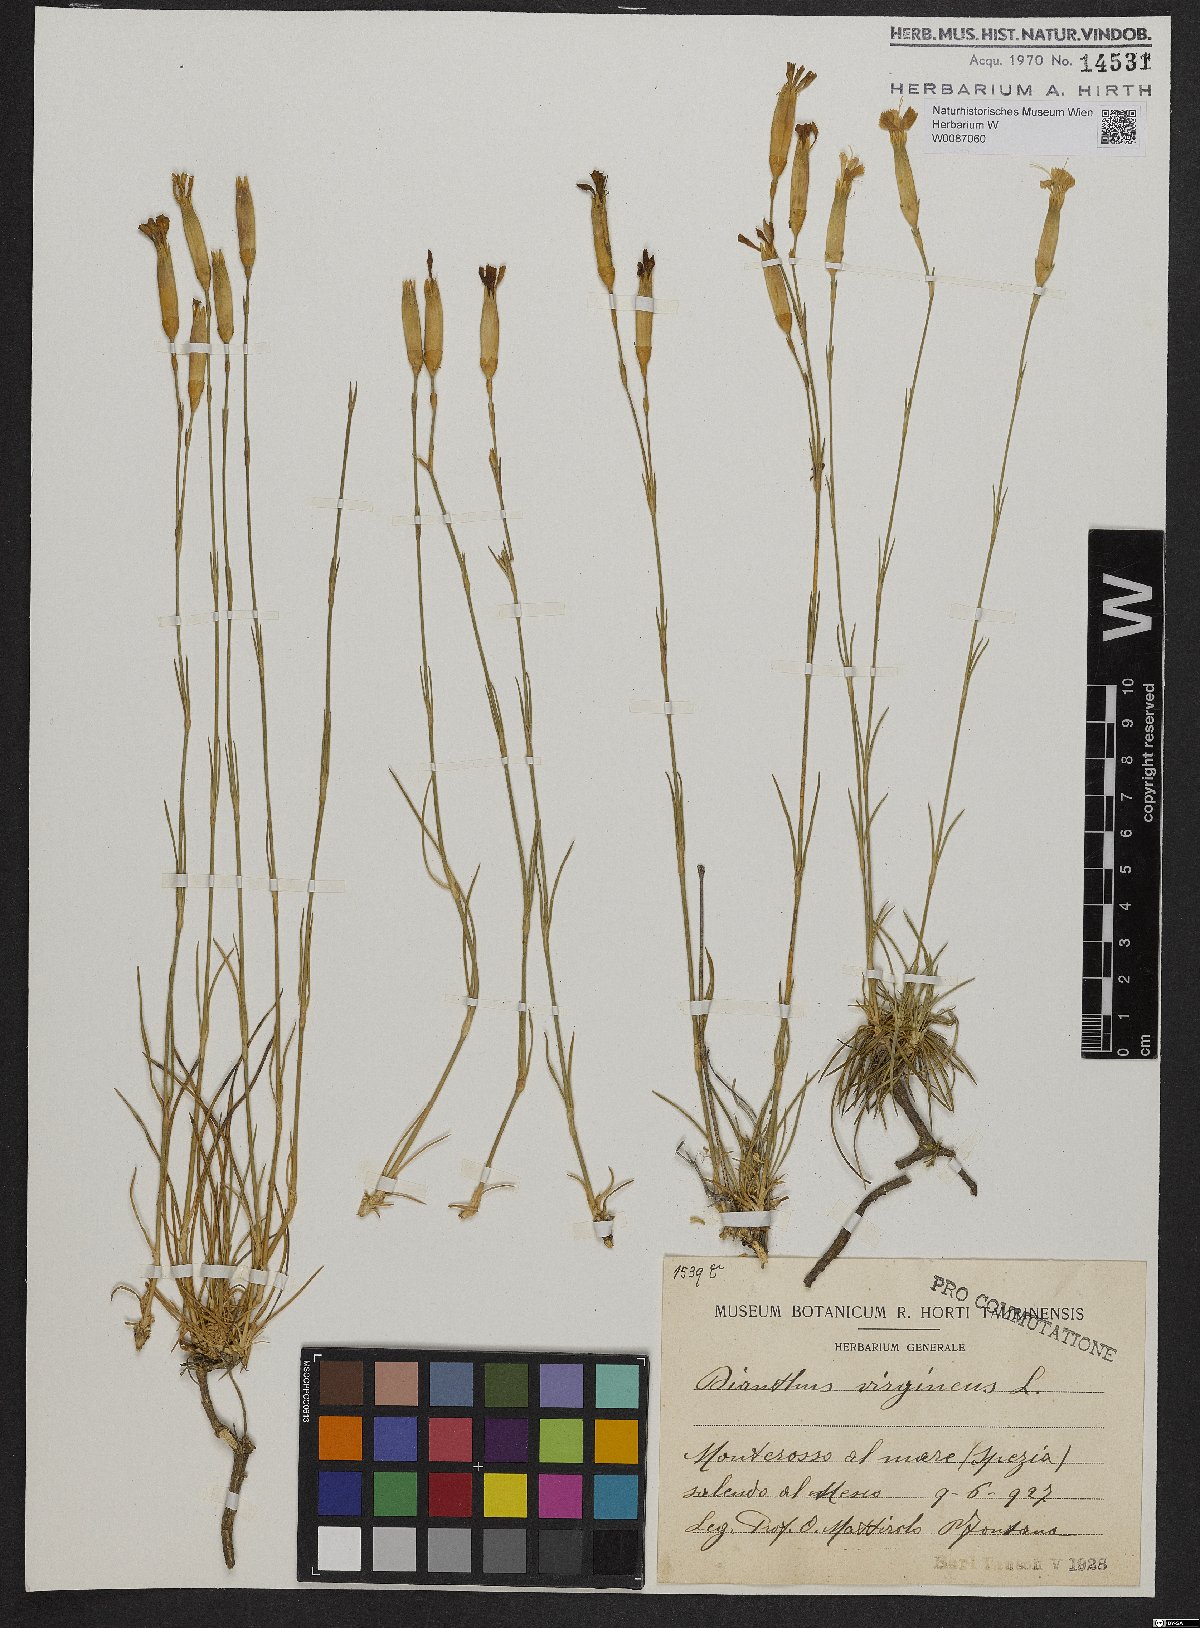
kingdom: Plantae
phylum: Tracheophyta
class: Magnoliopsida
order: Caryophyllales
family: Caryophyllaceae
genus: Dianthus
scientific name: Dianthus virgineus
